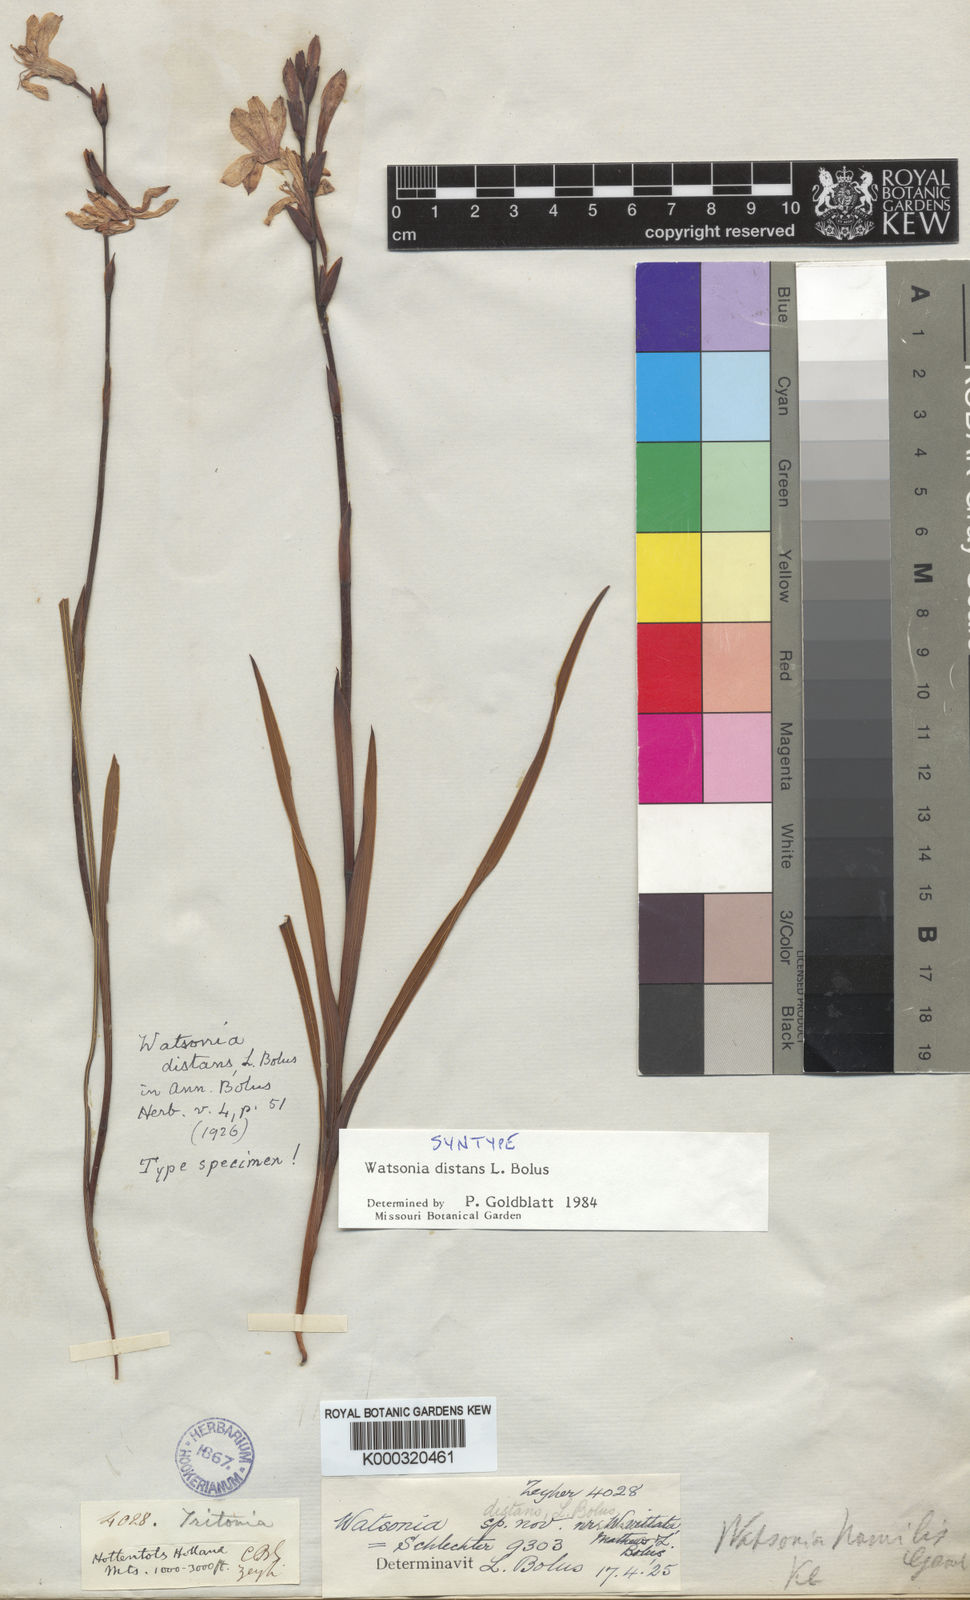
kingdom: Plantae
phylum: Tracheophyta
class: Liliopsida
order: Asparagales
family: Iridaceae
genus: Watsonia
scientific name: Watsonia distans
